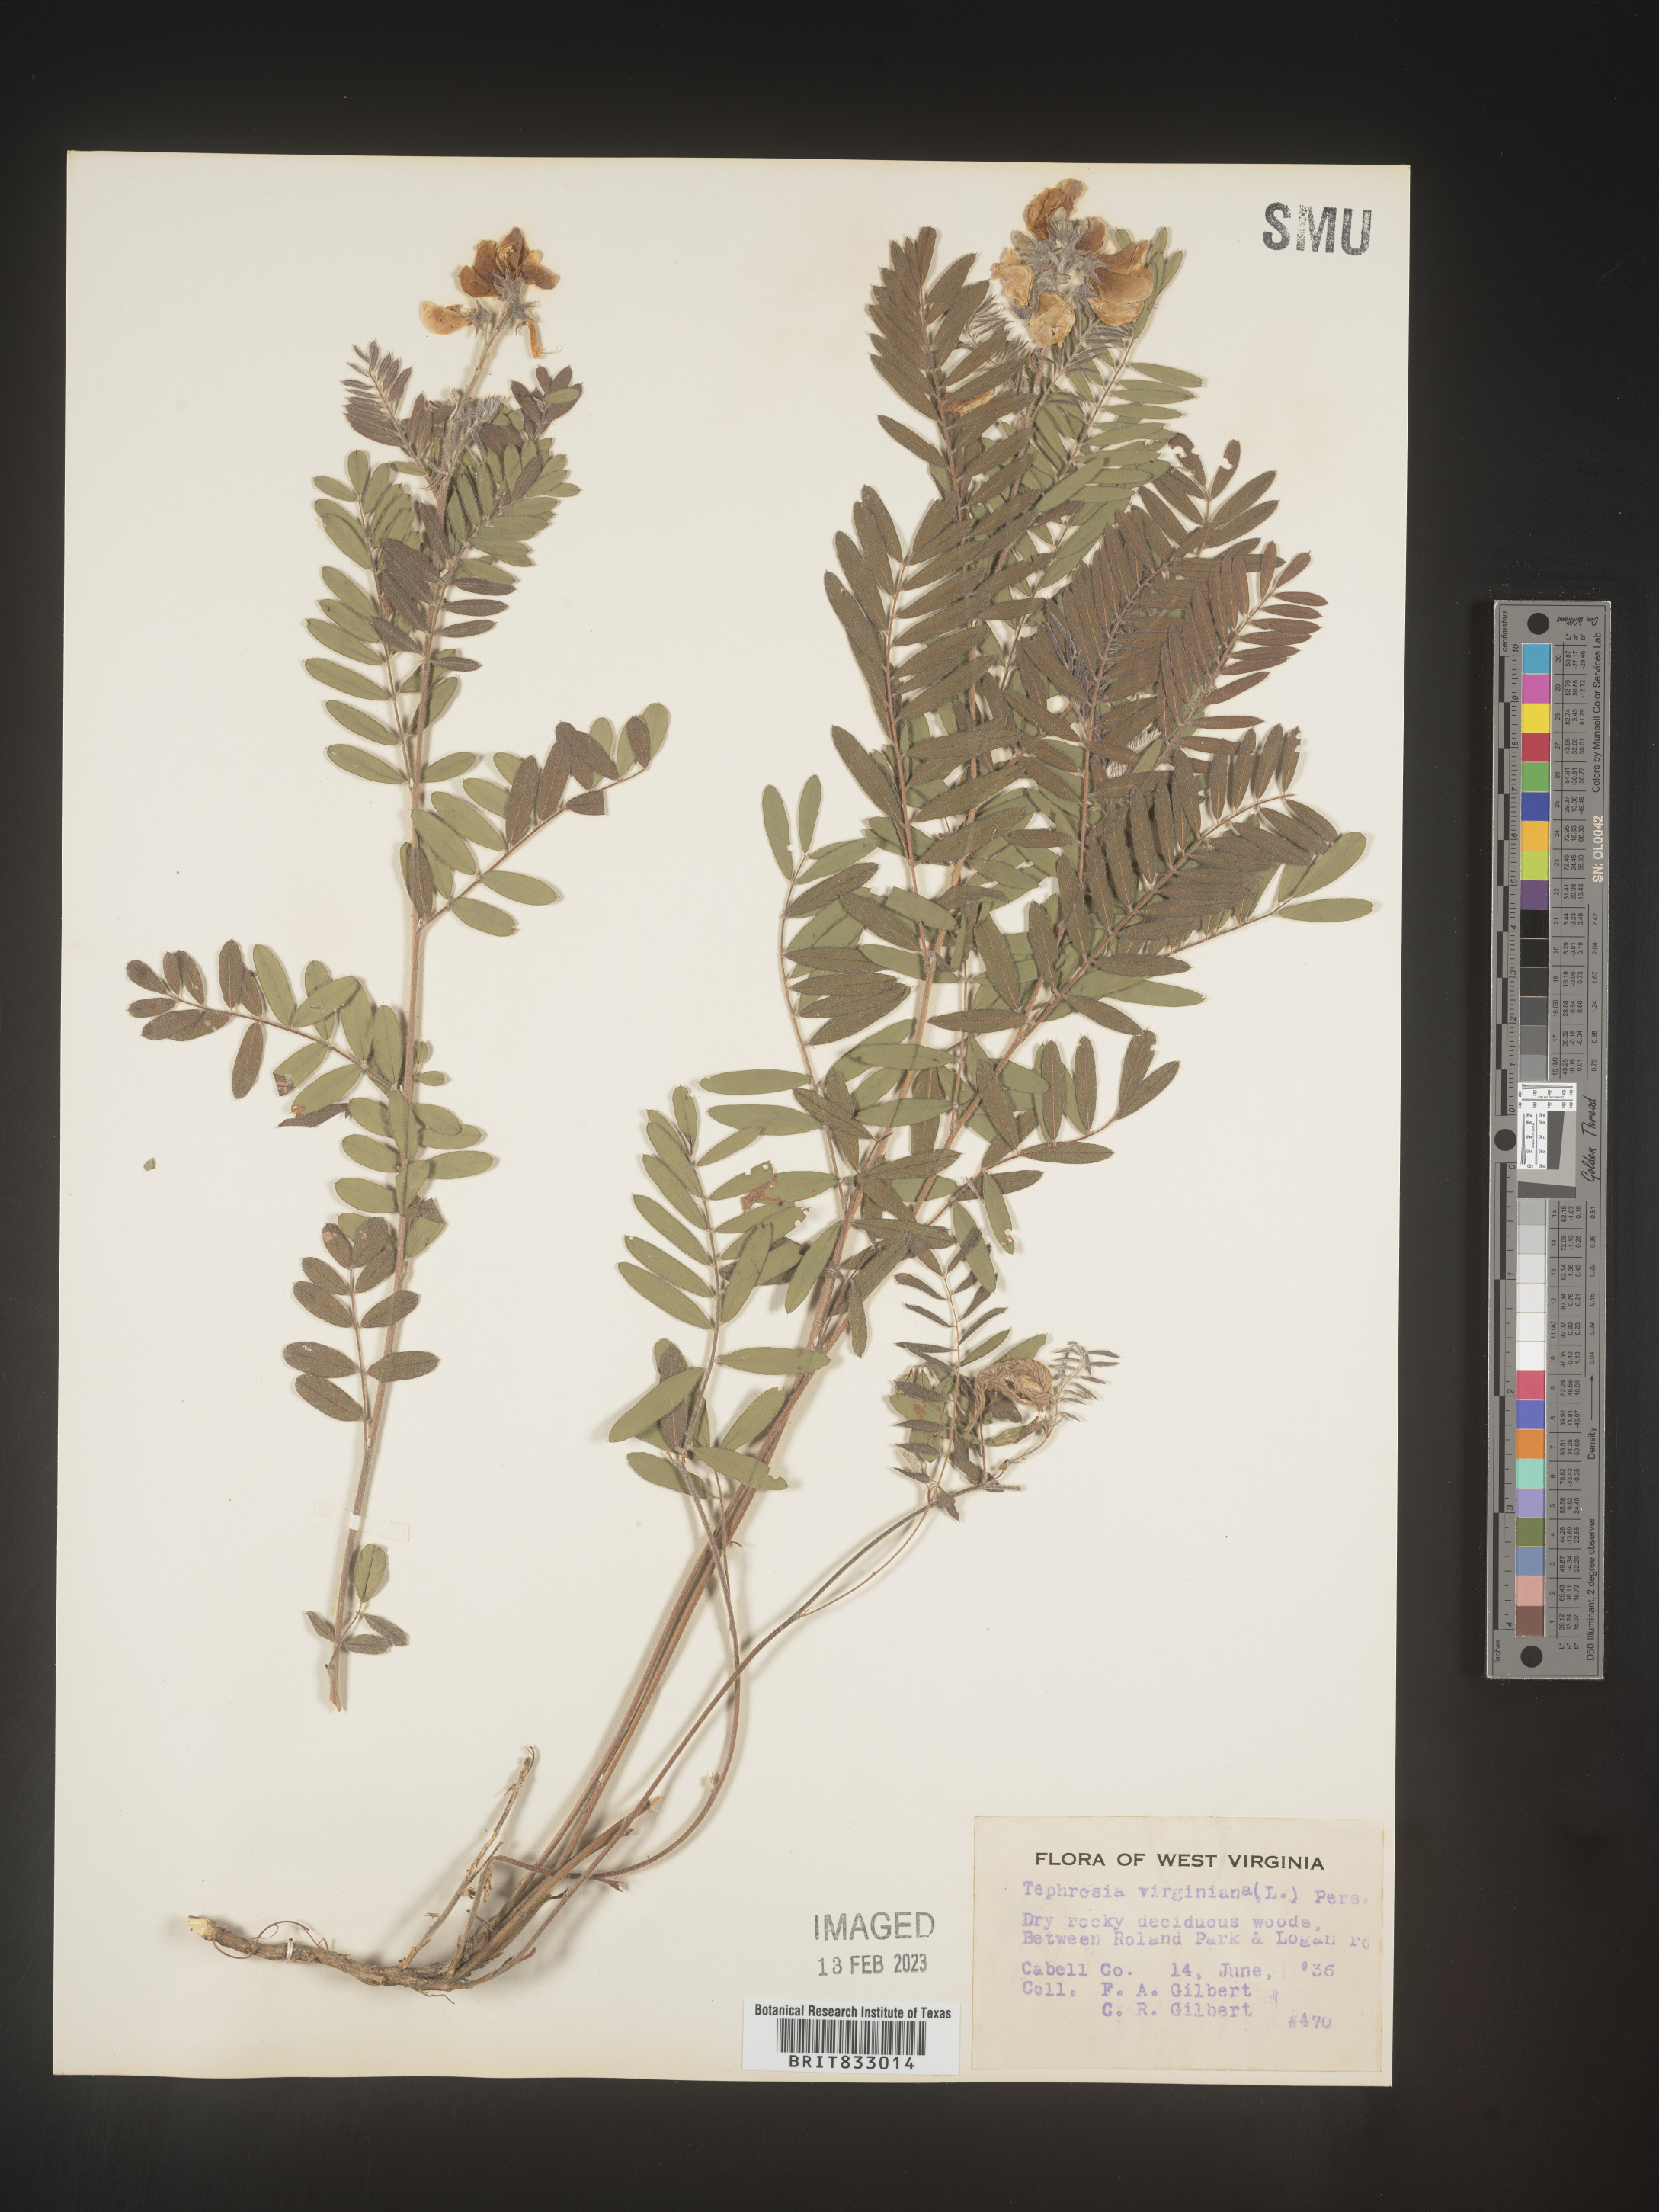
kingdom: Plantae
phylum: Tracheophyta
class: Magnoliopsida
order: Fabales
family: Fabaceae
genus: Tephrosia
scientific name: Tephrosia virginiana
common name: Rabbit-pea
